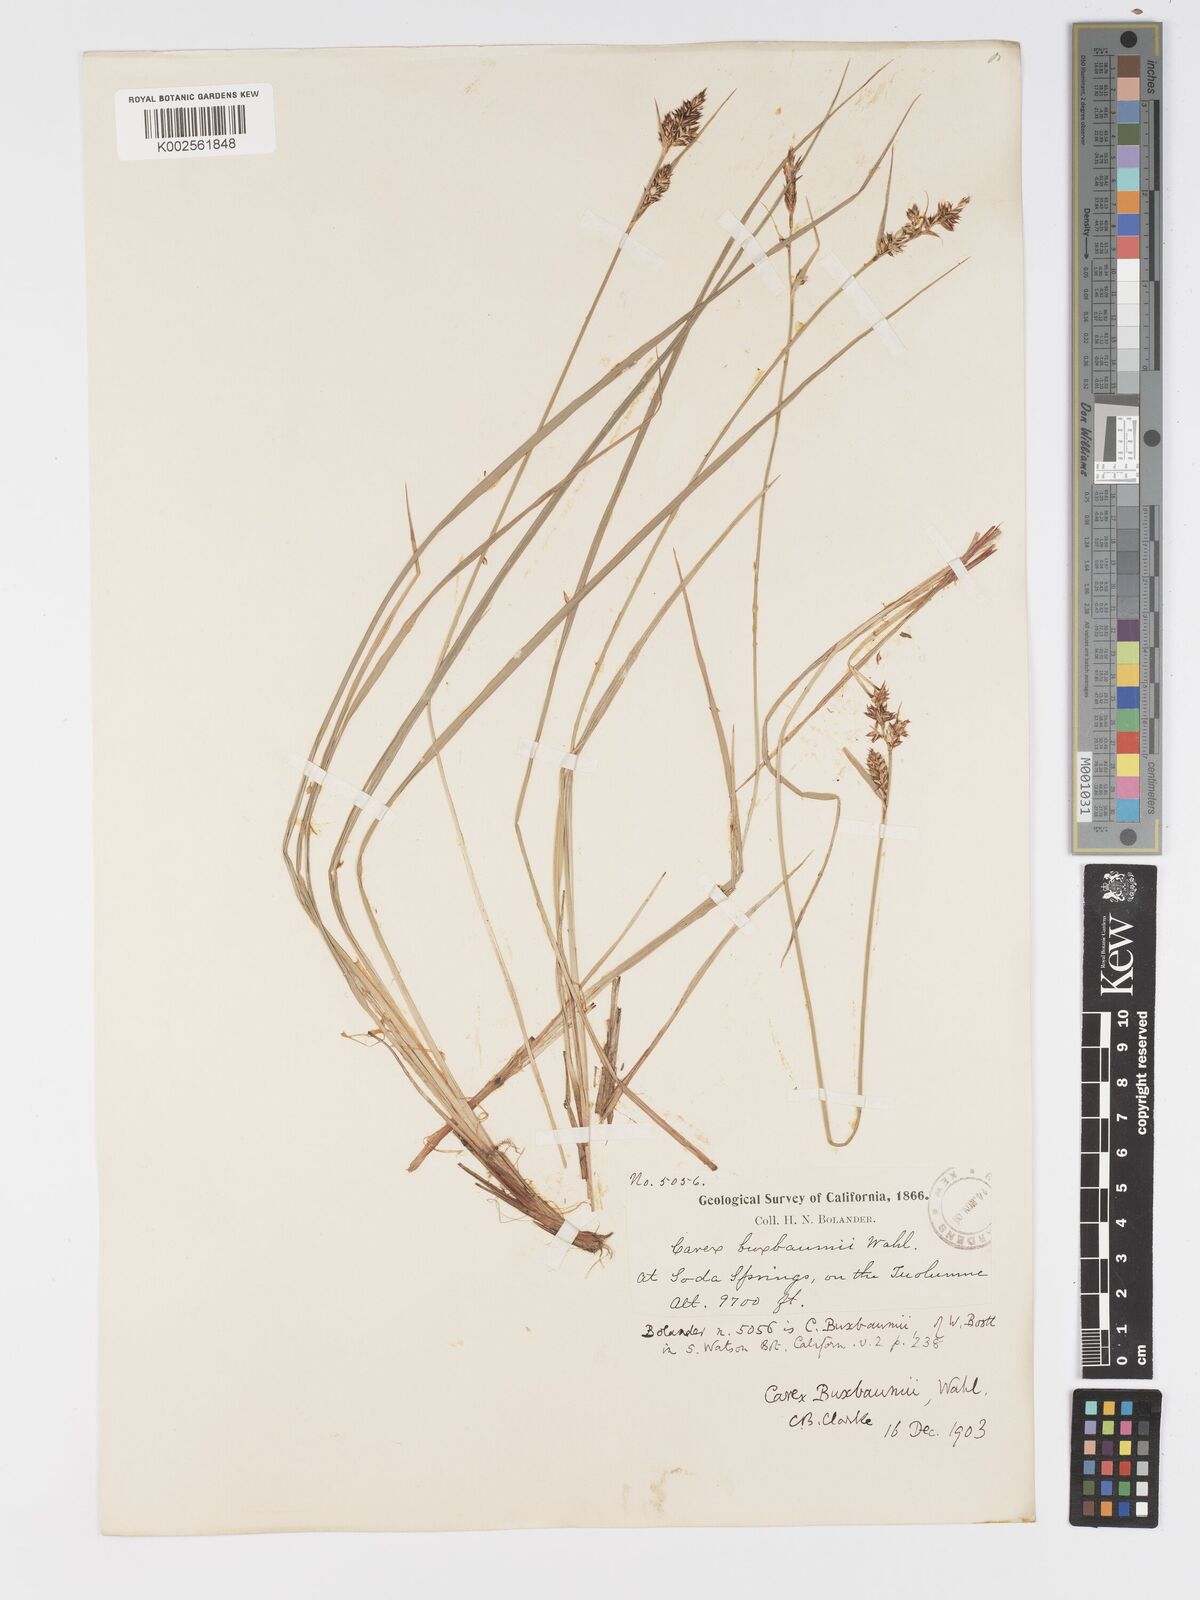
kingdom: Plantae
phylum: Tracheophyta
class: Liliopsida
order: Poales
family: Cyperaceae
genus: Carex
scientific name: Carex buxbaumii
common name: Club sedge
